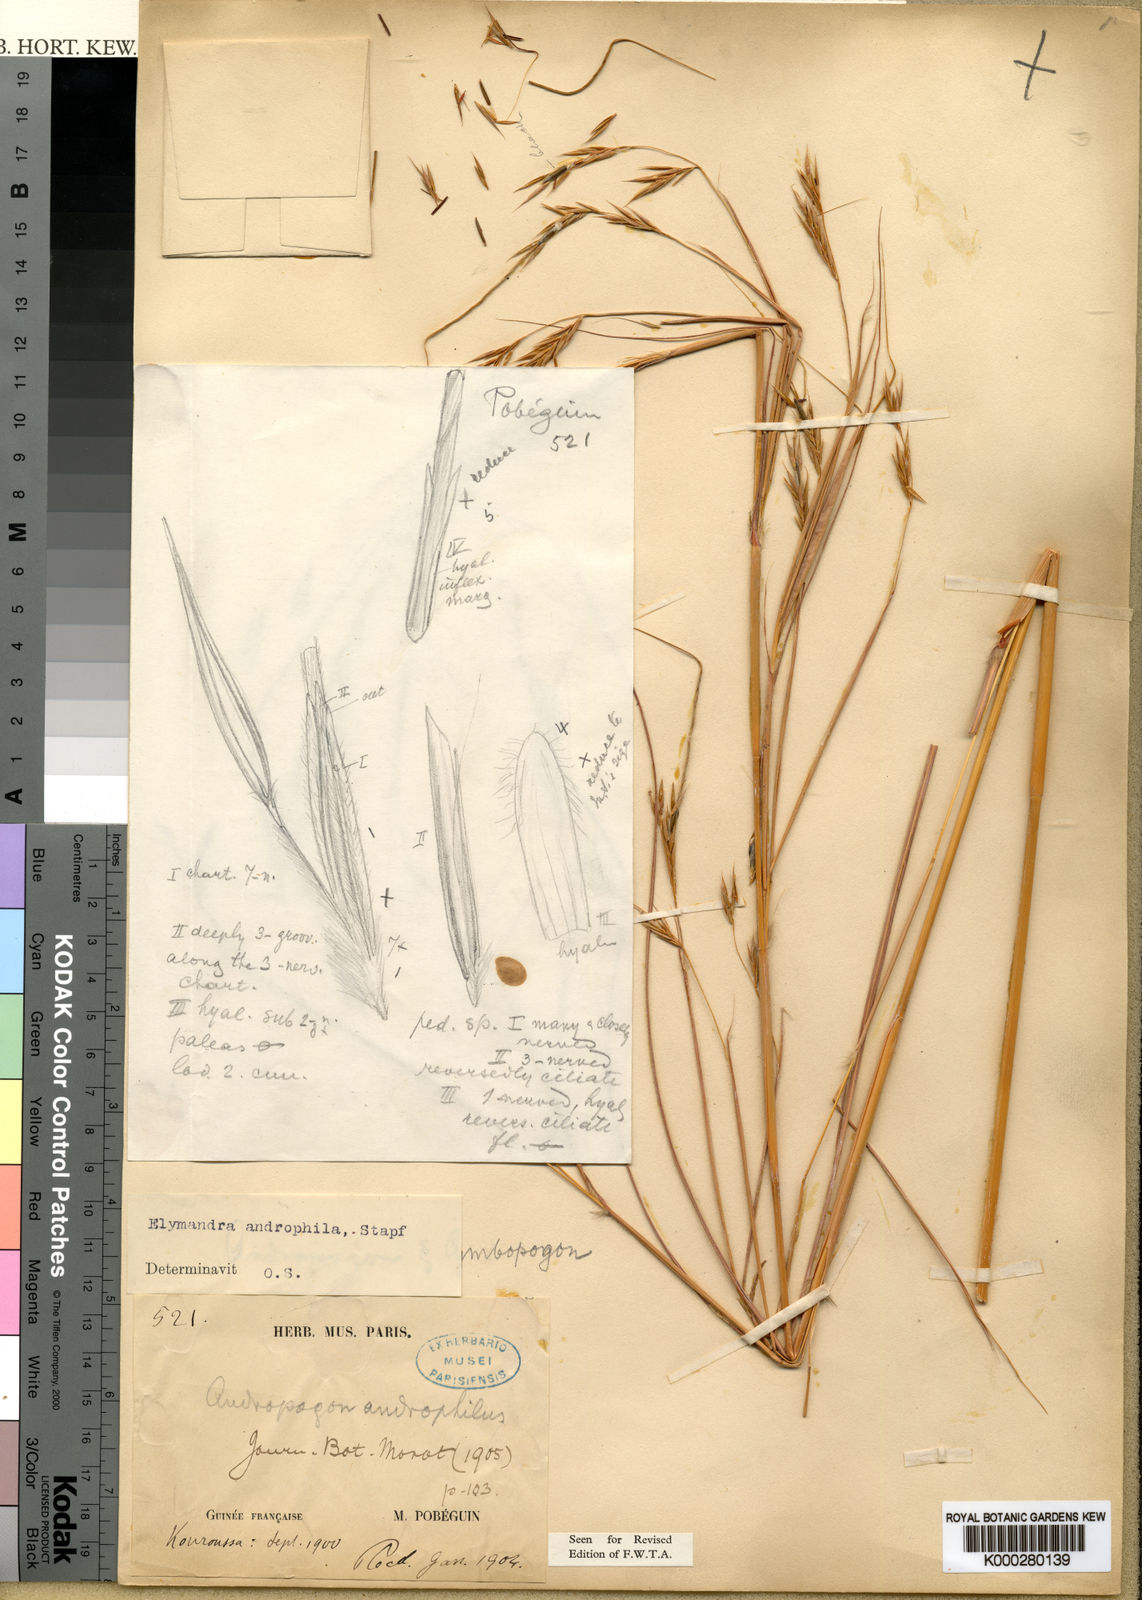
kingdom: Plantae
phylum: Tracheophyta
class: Liliopsida
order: Poales
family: Poaceae
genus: Elymandra
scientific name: Elymandra androphila
